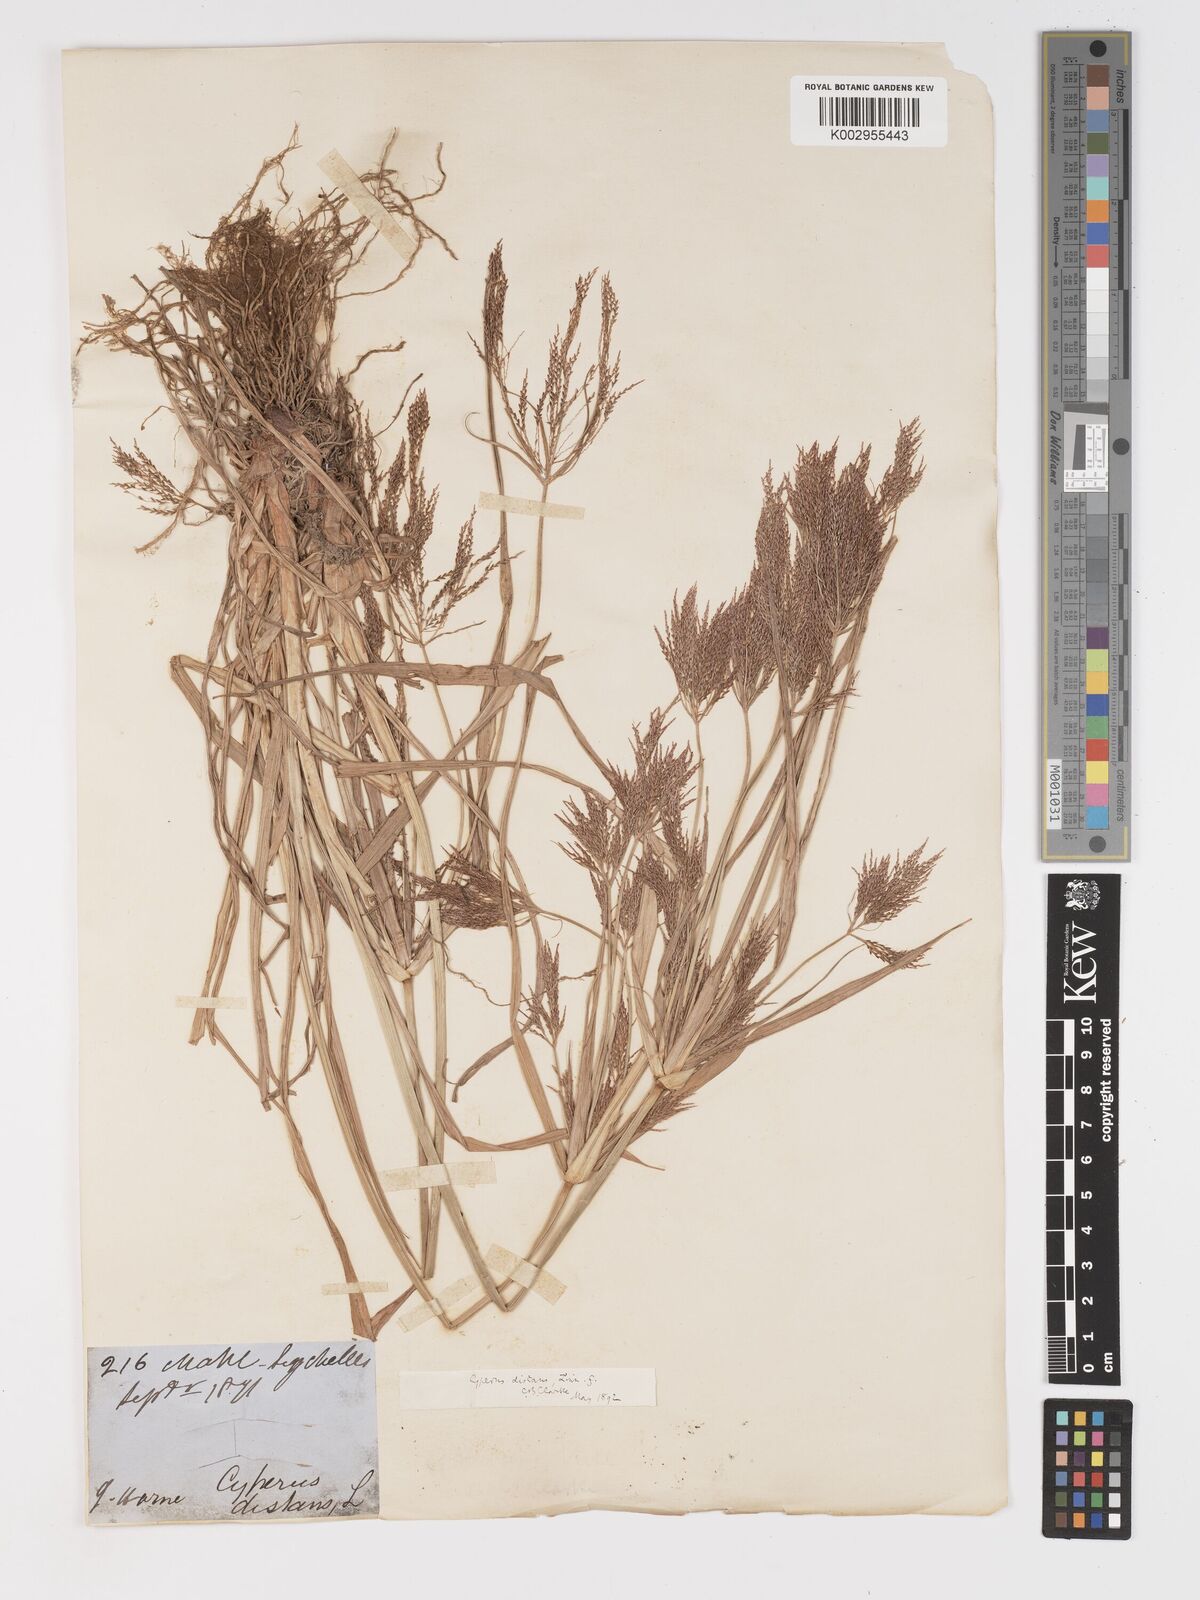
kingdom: Plantae
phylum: Tracheophyta
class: Liliopsida
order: Poales
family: Cyperaceae
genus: Cyperus
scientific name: Cyperus distans
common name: Slender cyperus
